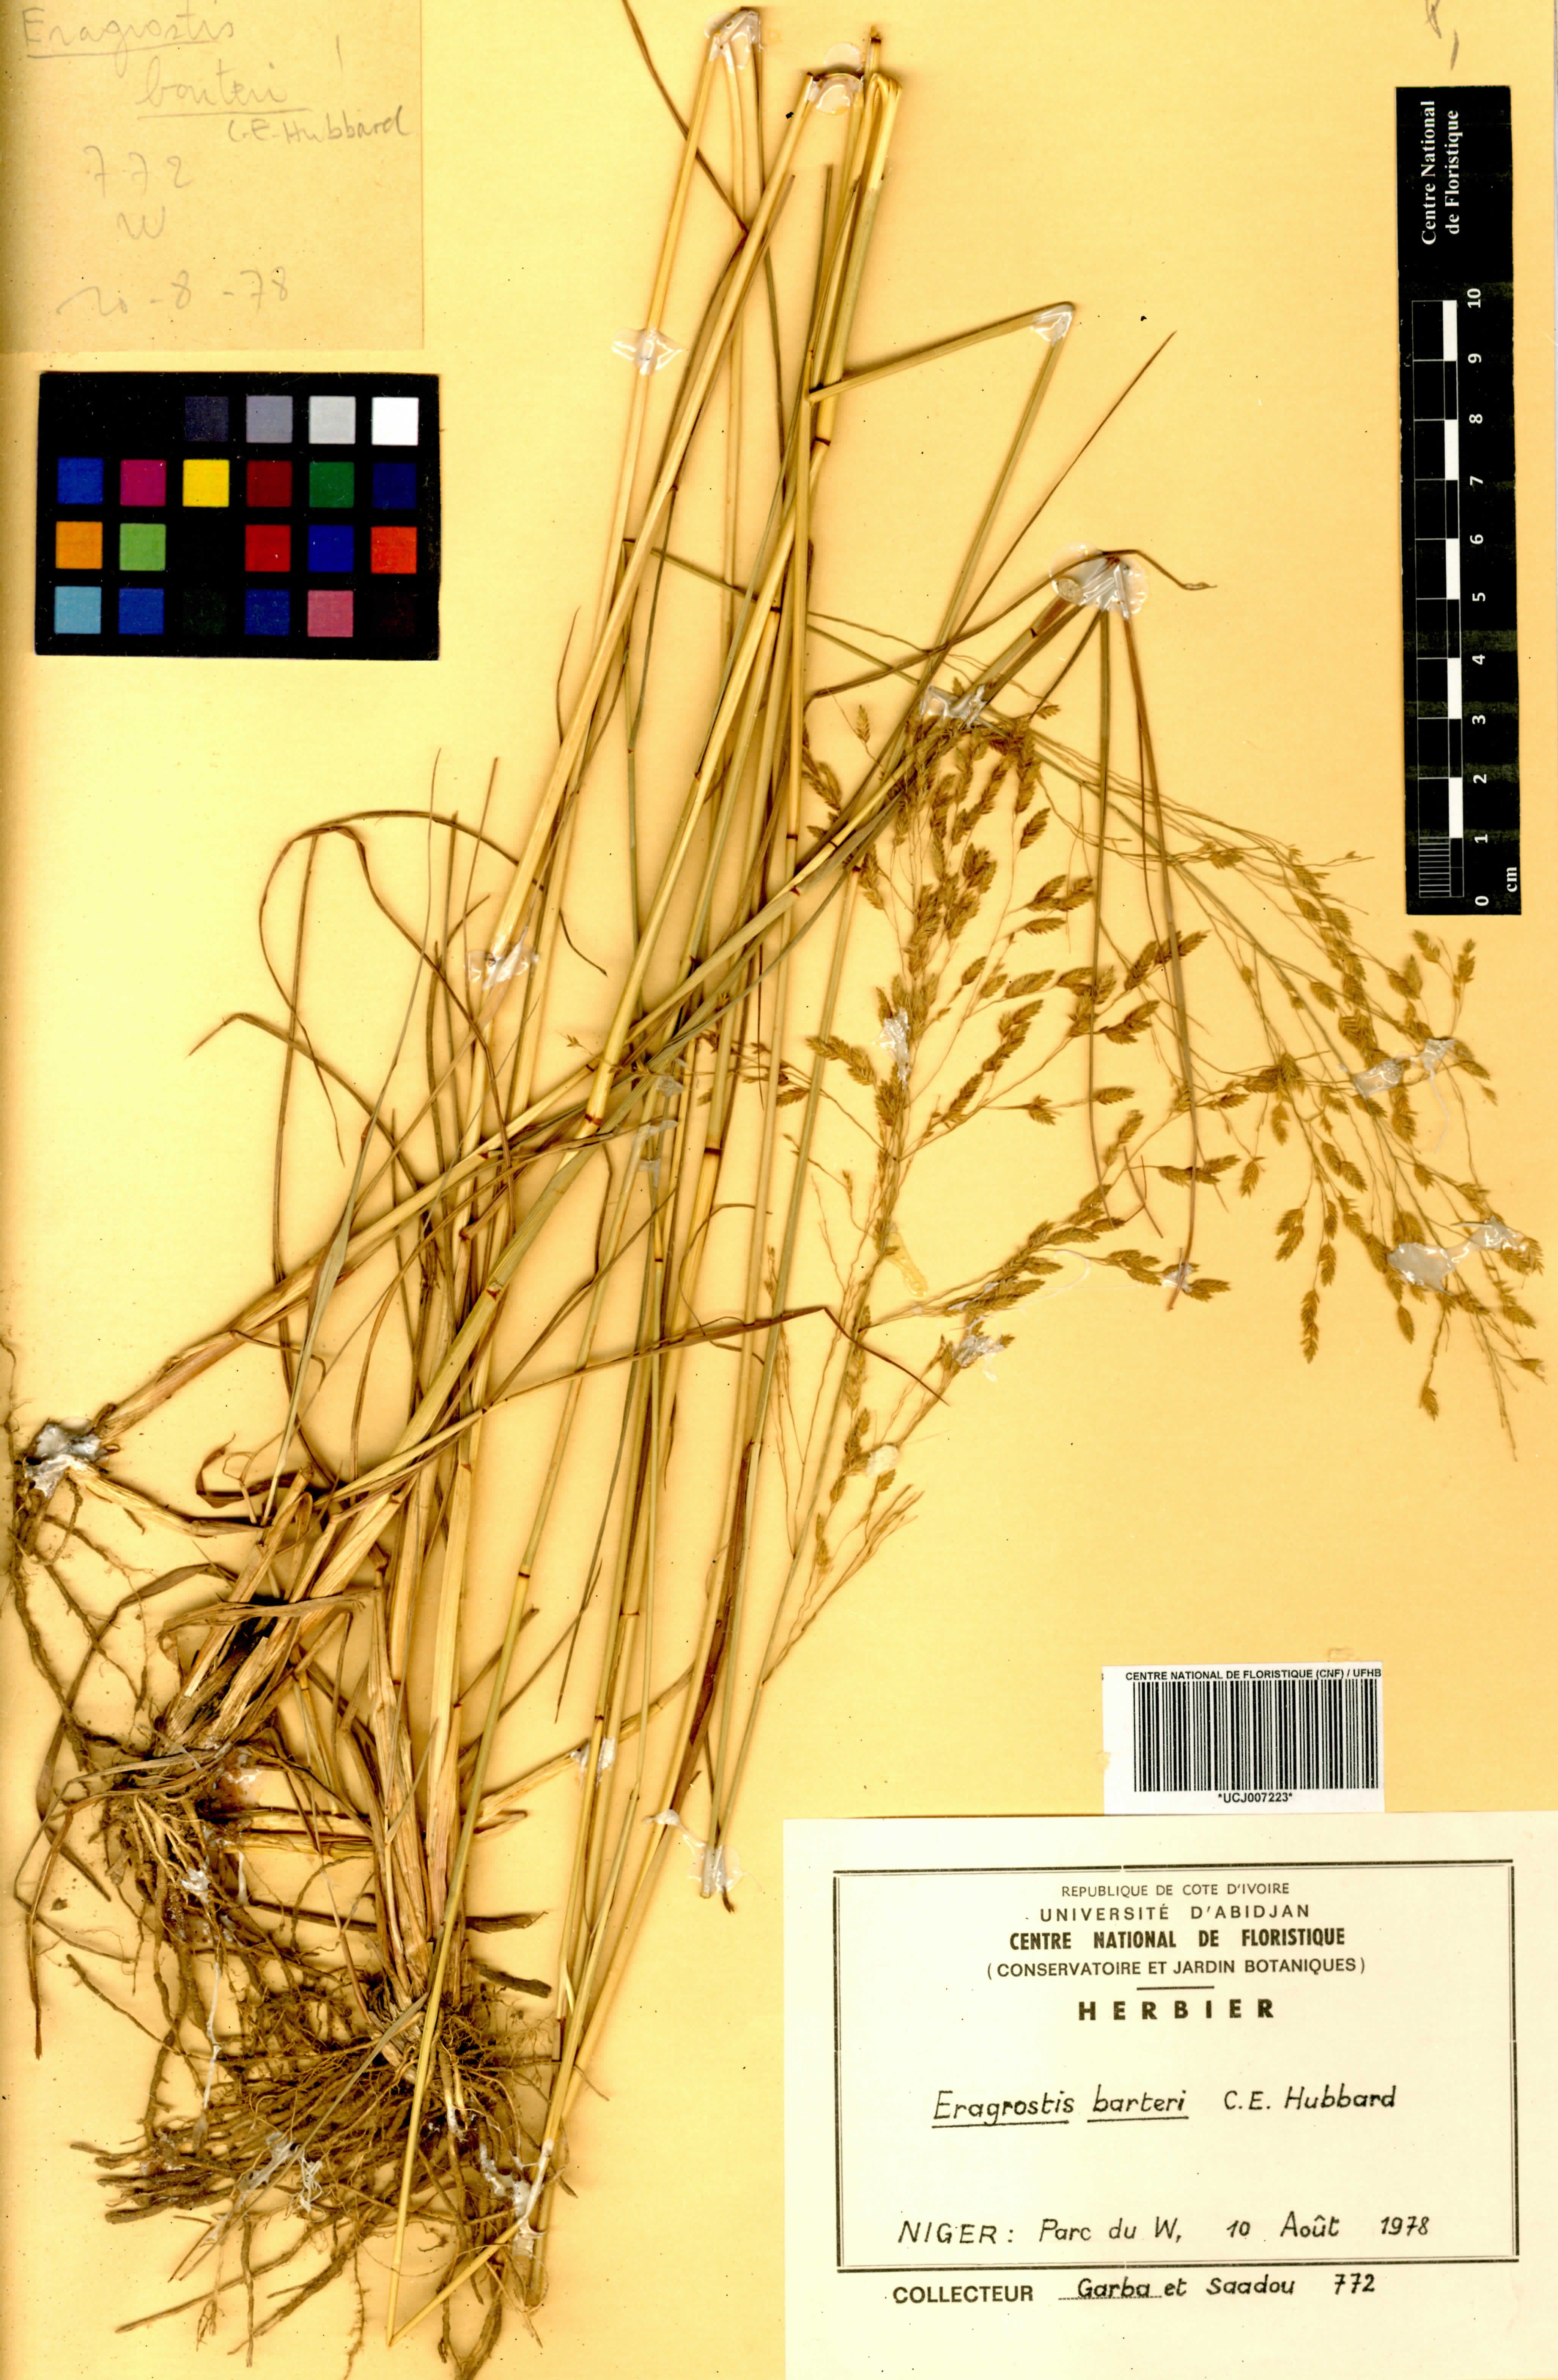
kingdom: Plantae
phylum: Tracheophyta
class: Liliopsida
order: Poales
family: Poaceae
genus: Eragrostis
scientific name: Eragrostis barteri
